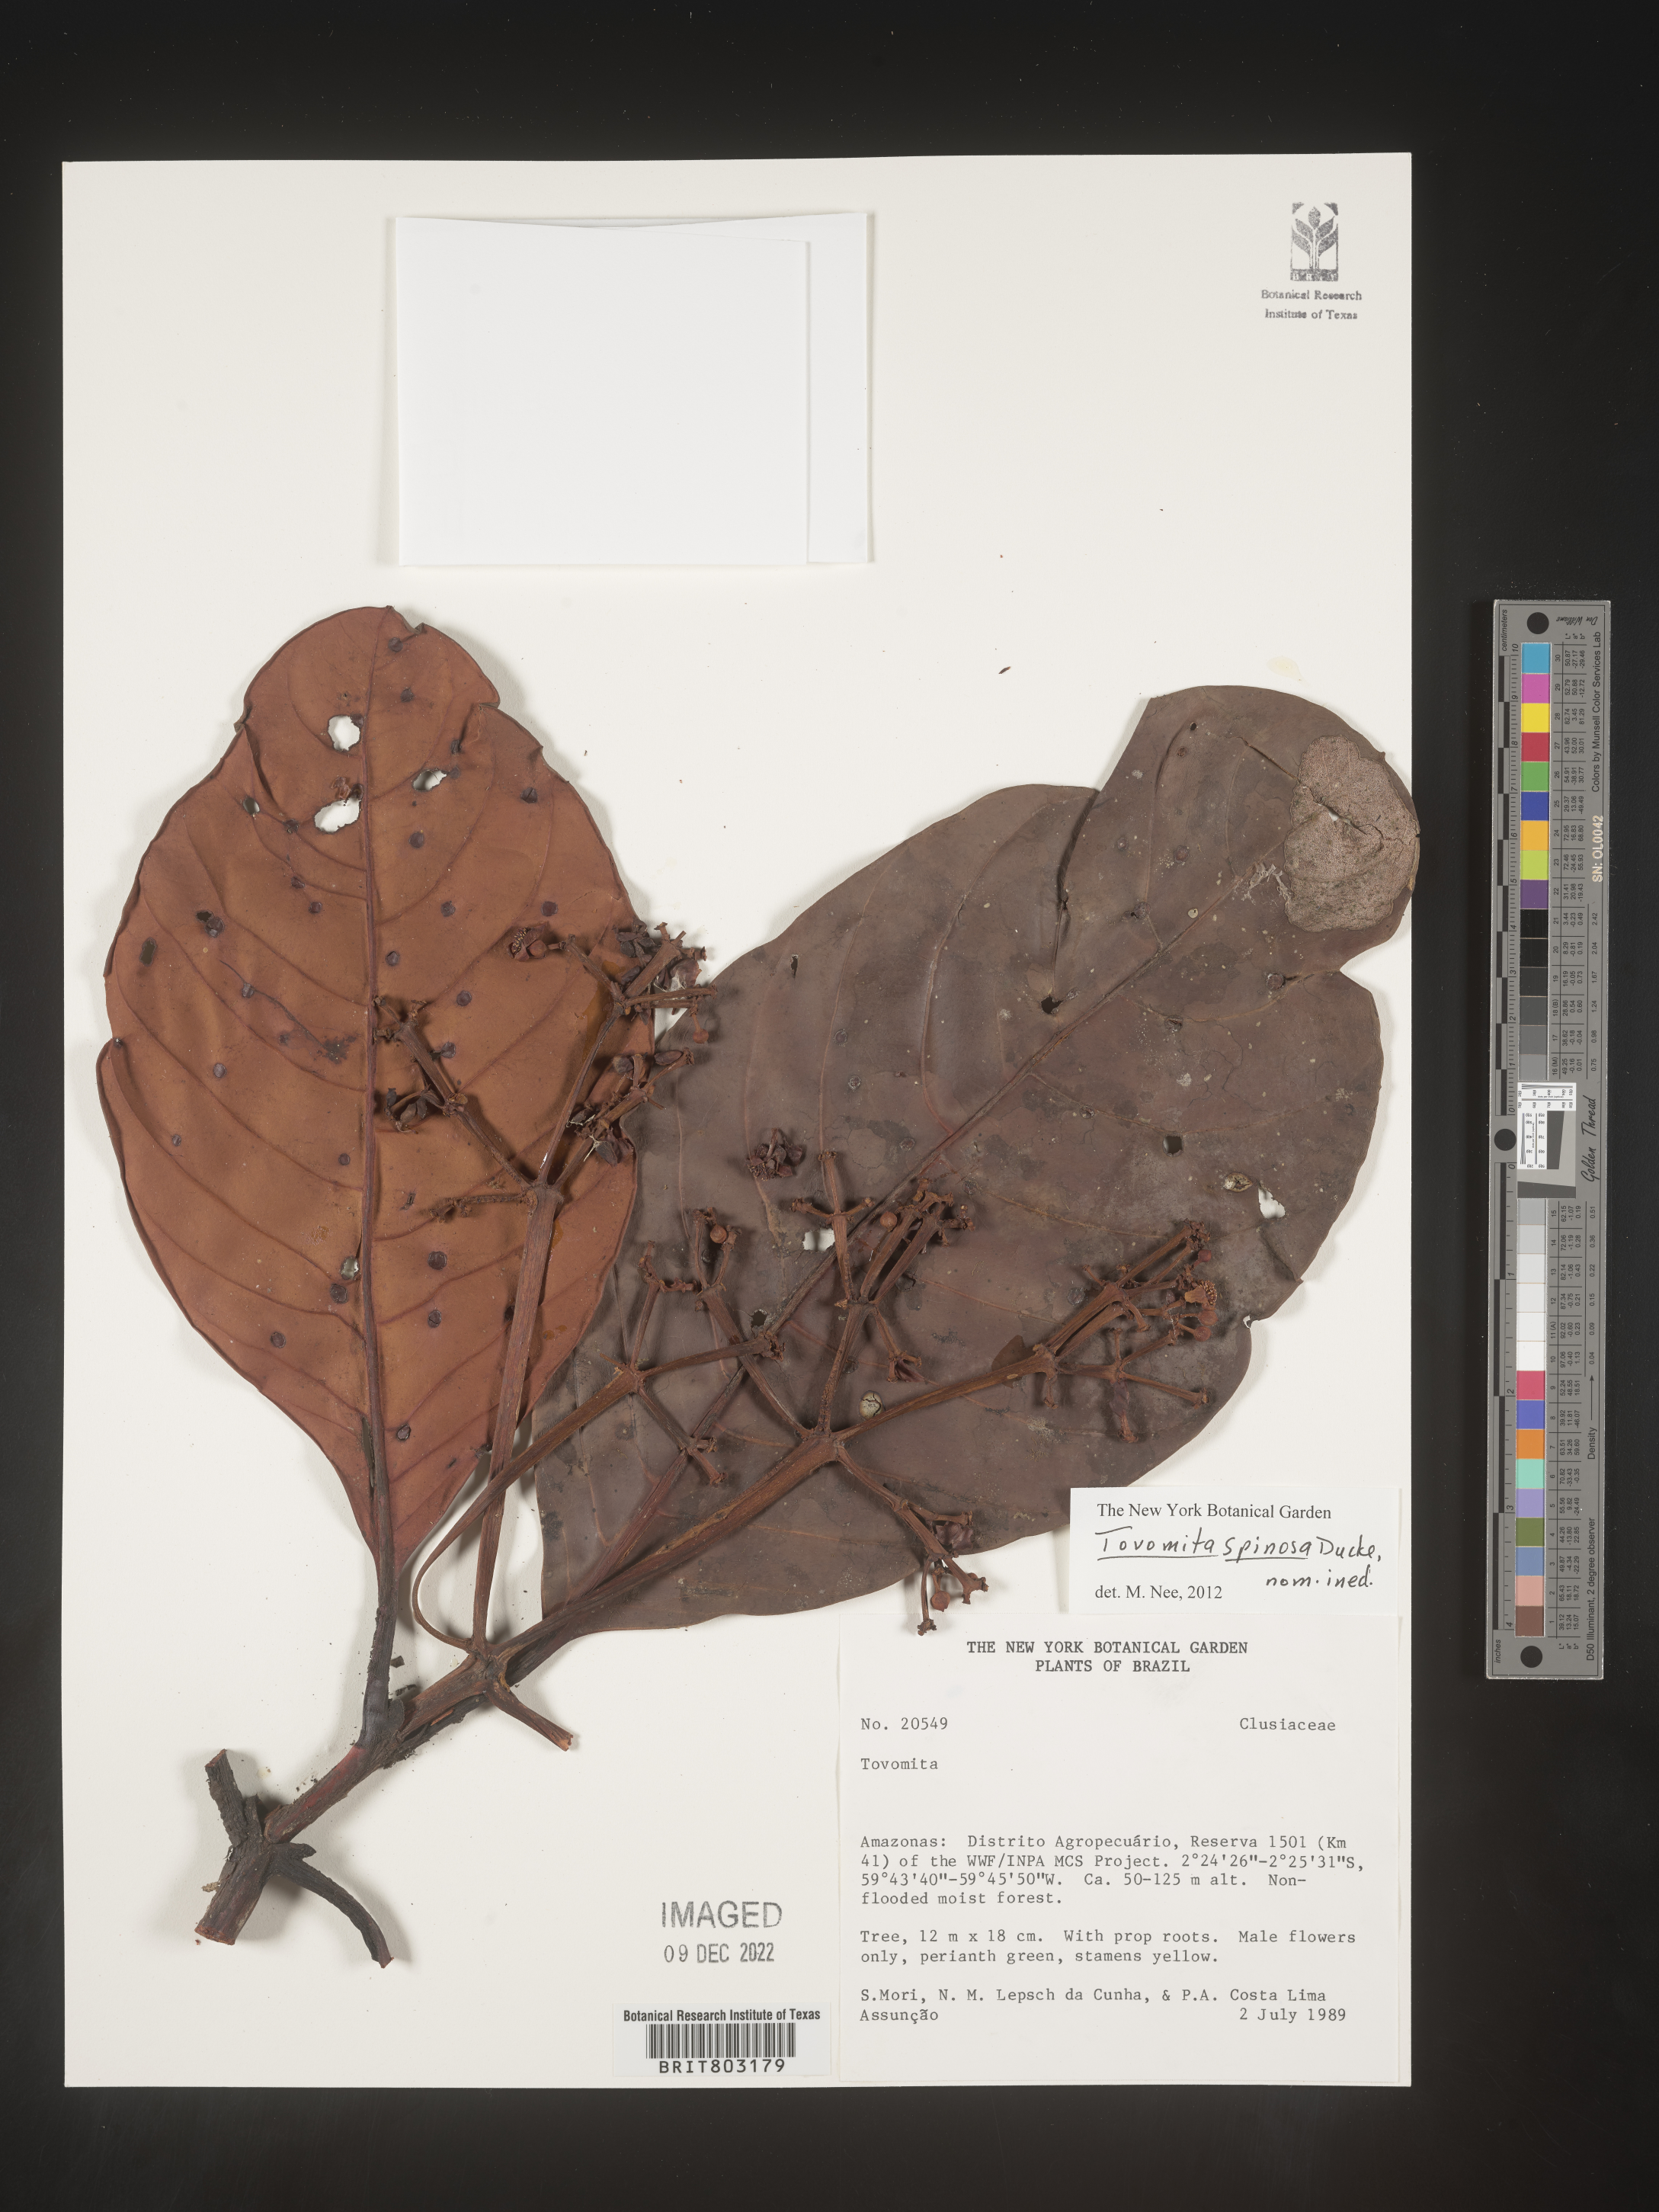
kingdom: Plantae
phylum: Tracheophyta
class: Magnoliopsida
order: Malpighiales
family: Clusiaceae
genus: Tovomita
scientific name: Tovomita
